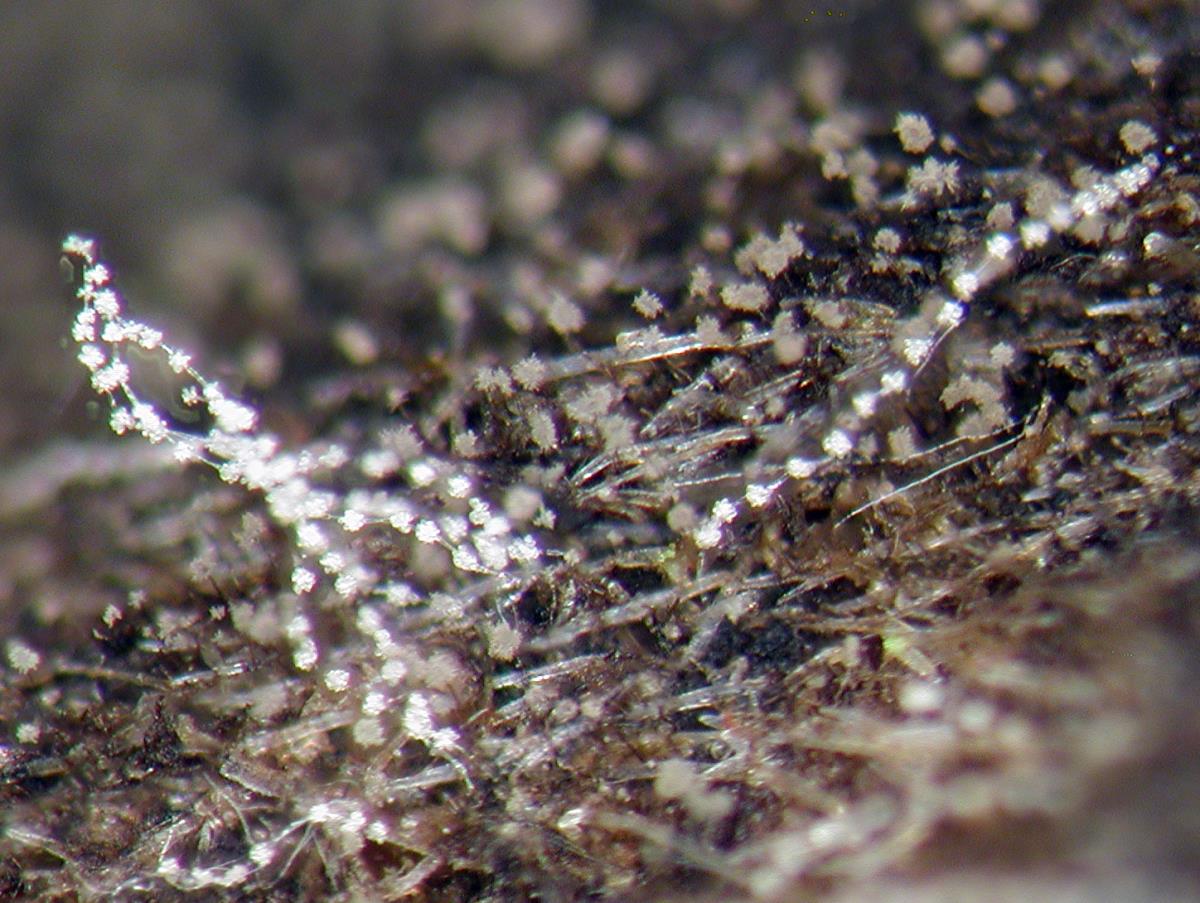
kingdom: Fungi
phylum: Ascomycota
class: Sordariomycetes
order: Melanosporales
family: Ceratostomataceae
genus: Melanospora
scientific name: Melanospora simplex
